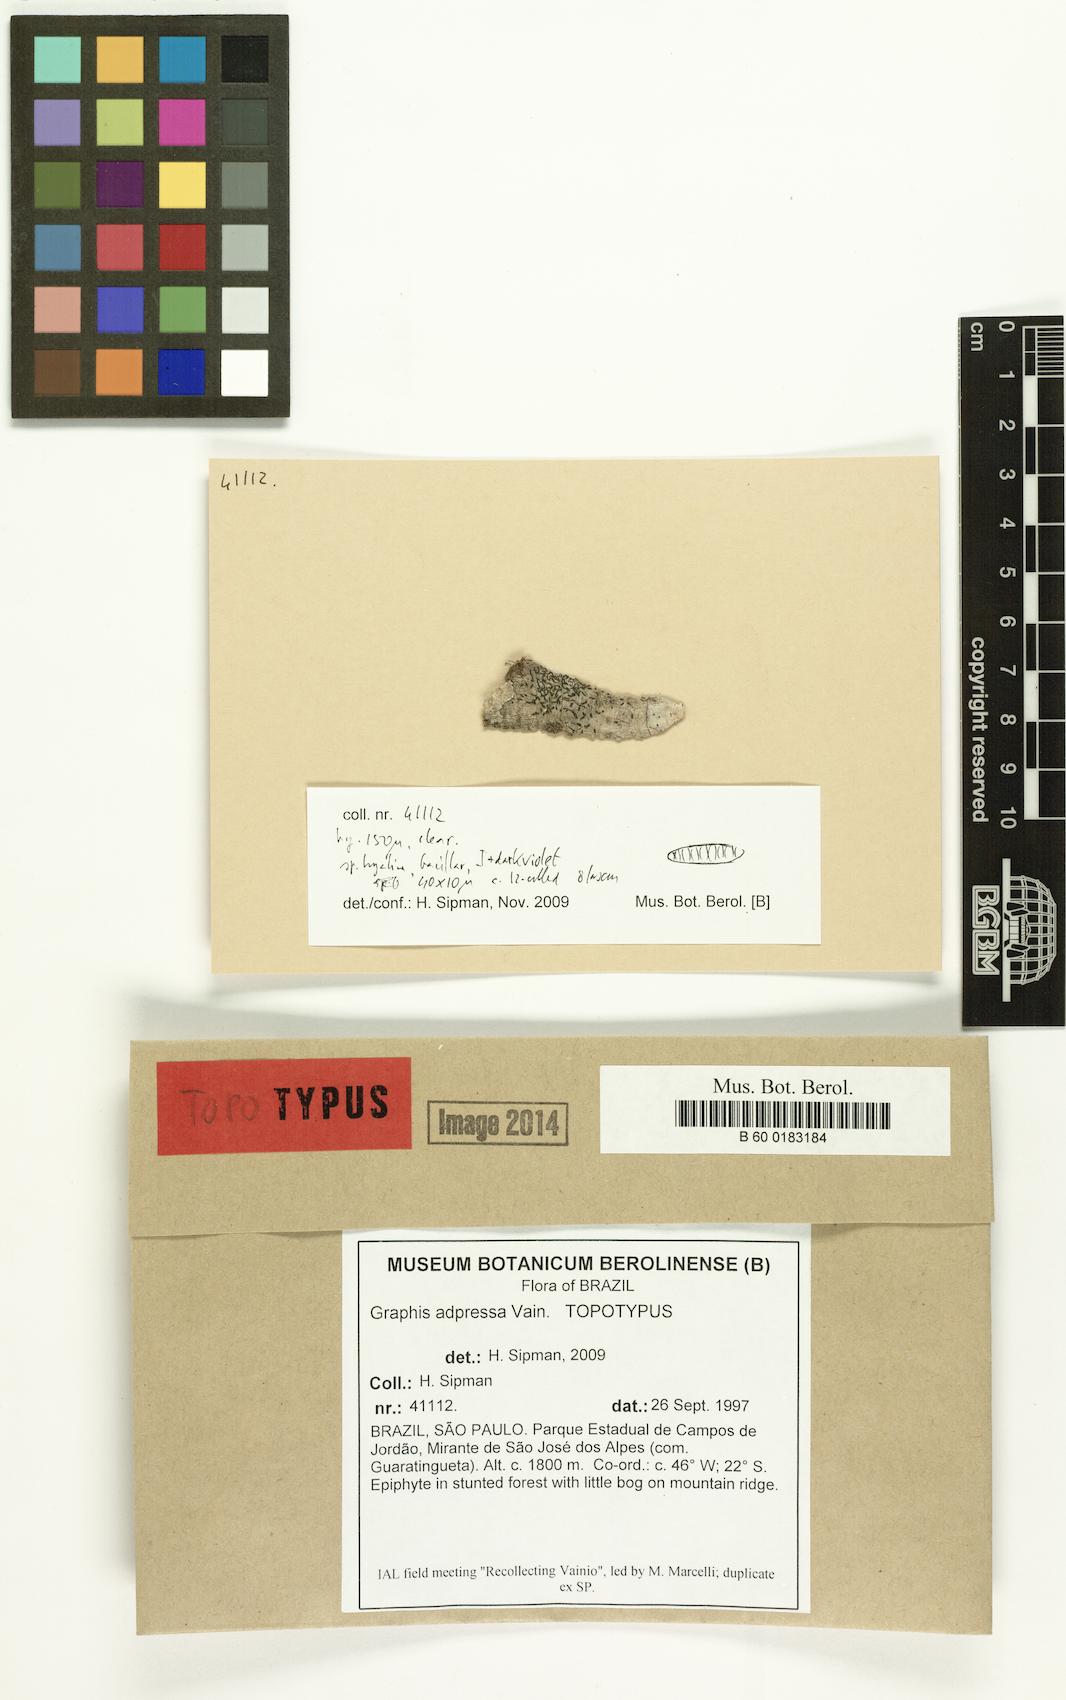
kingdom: Fungi
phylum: Ascomycota
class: Lecanoromycetes
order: Ostropales
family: Graphidaceae
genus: Allographa
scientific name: Allographa adpressa
